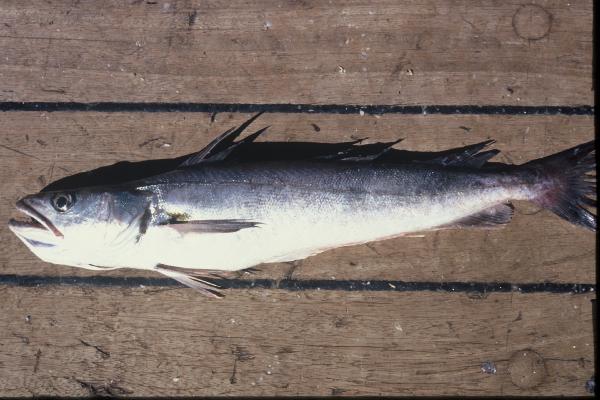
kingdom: Animalia
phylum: Chordata
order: Gadiformes
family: Merlucciidae
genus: Merluccius
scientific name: Merluccius capensis
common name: Cape hake
